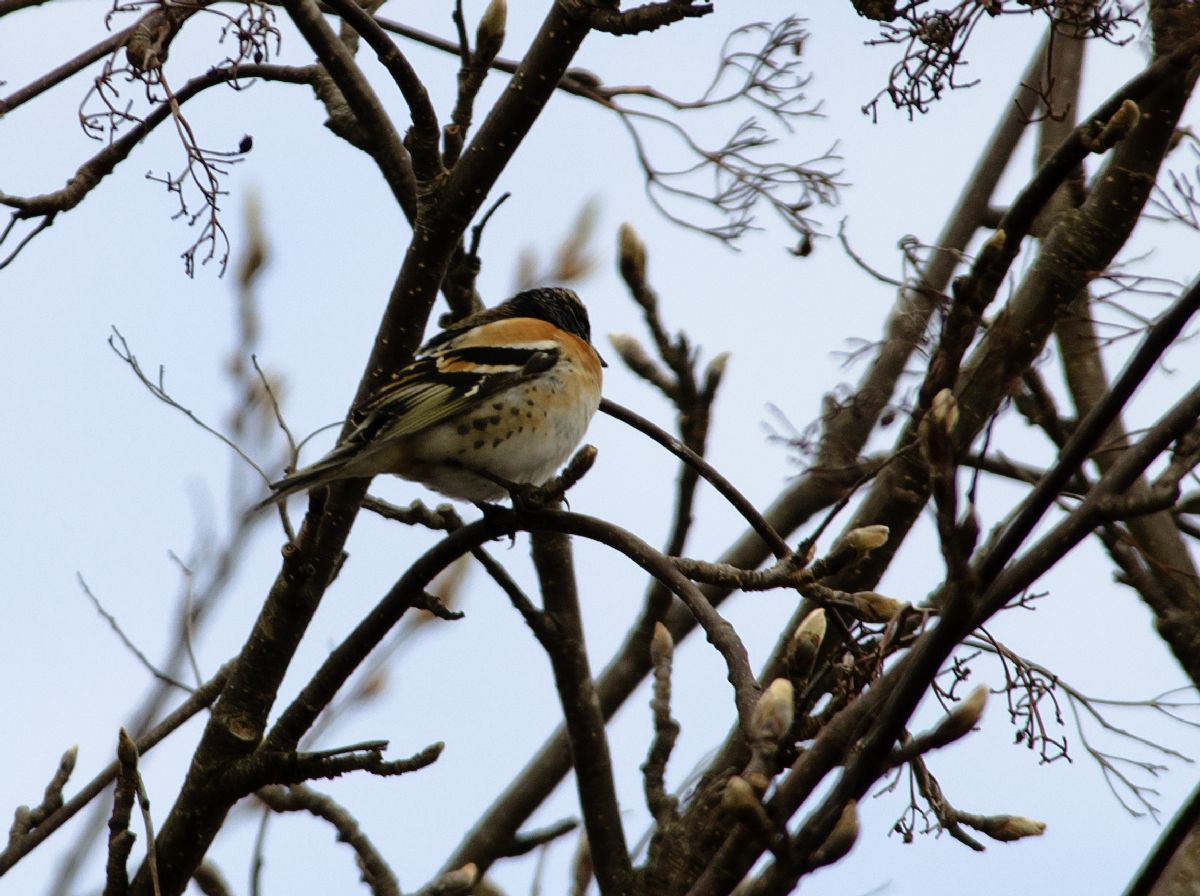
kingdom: Animalia
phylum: Chordata
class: Aves
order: Passeriformes
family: Fringillidae
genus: Fringilla
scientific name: Fringilla montifringilla
